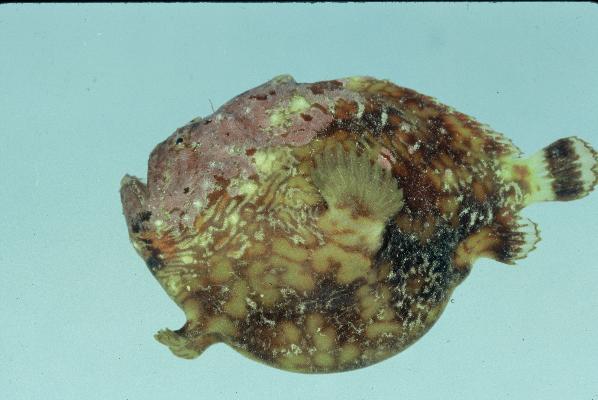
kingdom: Animalia
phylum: Chordata
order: Lophiiformes
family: Antennariidae
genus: Antennatus
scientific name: Antennatus tuberosus
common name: Reticulated frogfish
